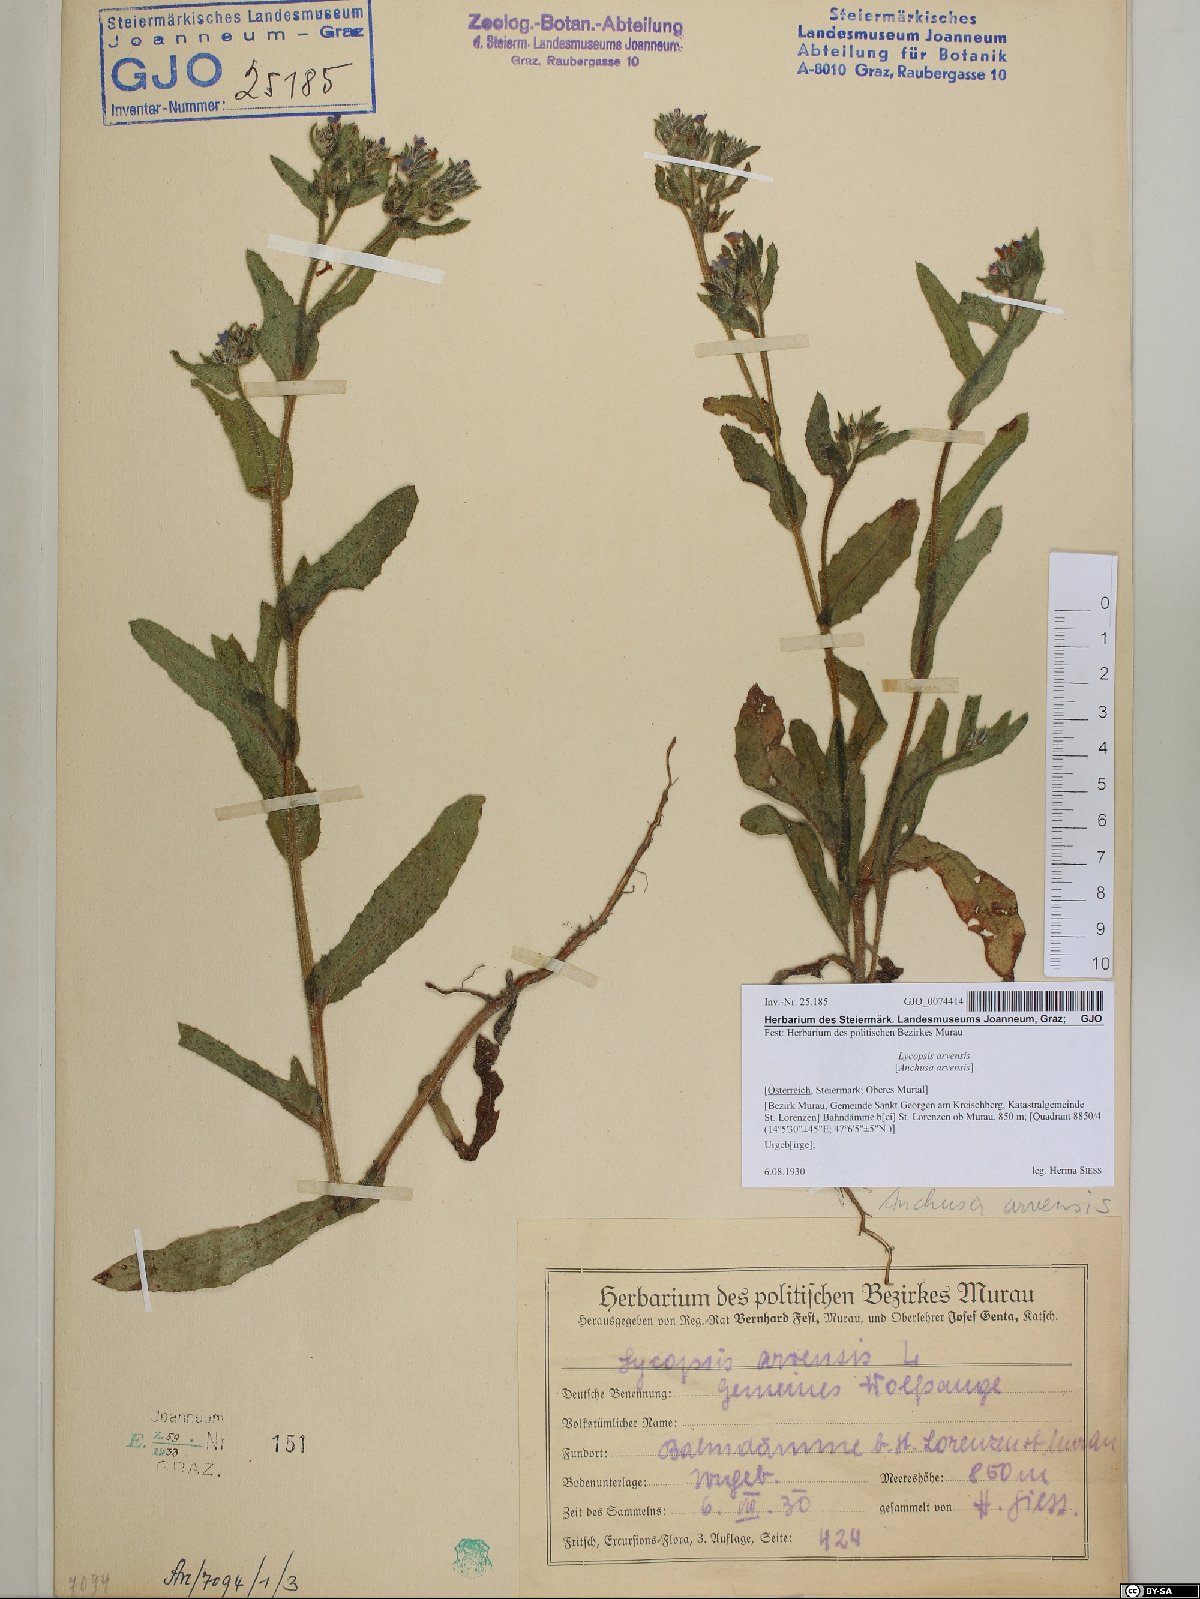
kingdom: Plantae
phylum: Tracheophyta
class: Magnoliopsida
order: Boraginales
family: Boraginaceae
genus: Lycopsis
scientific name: Lycopsis arvensis
